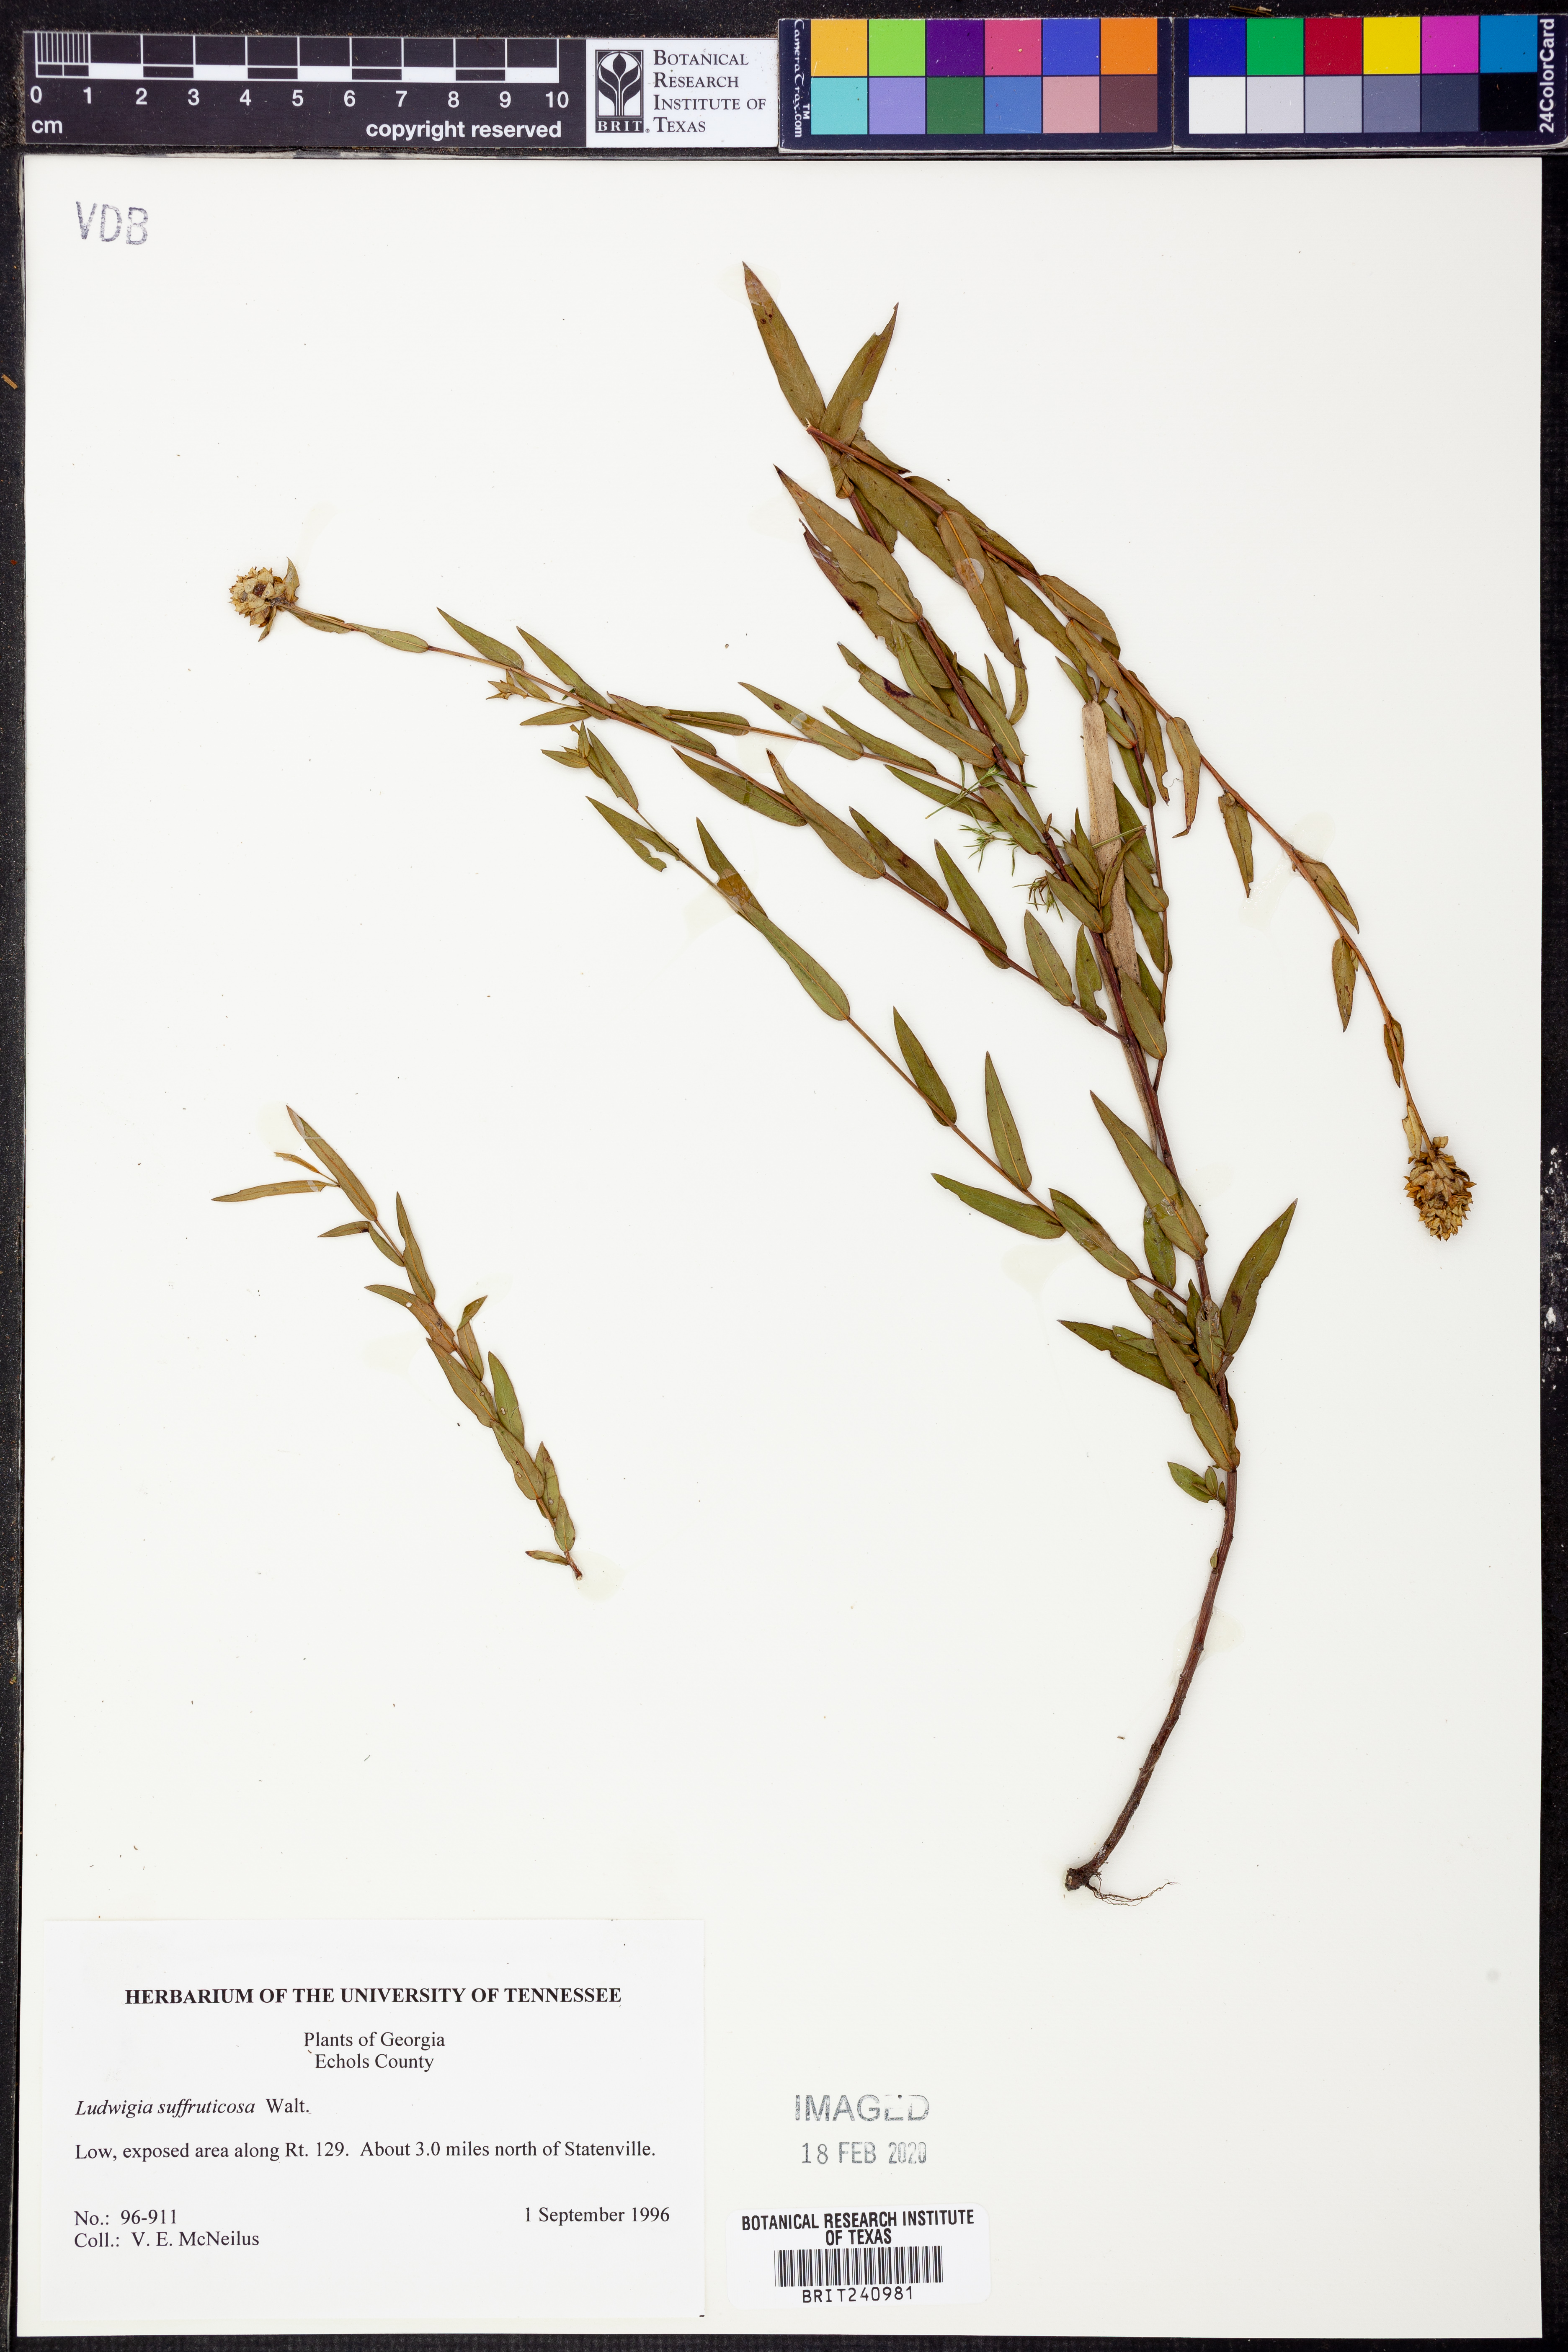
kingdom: Plantae
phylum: Tracheophyta
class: Magnoliopsida
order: Myrtales
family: Onagraceae
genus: Ludwigia
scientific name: Ludwigia suffruticosa
